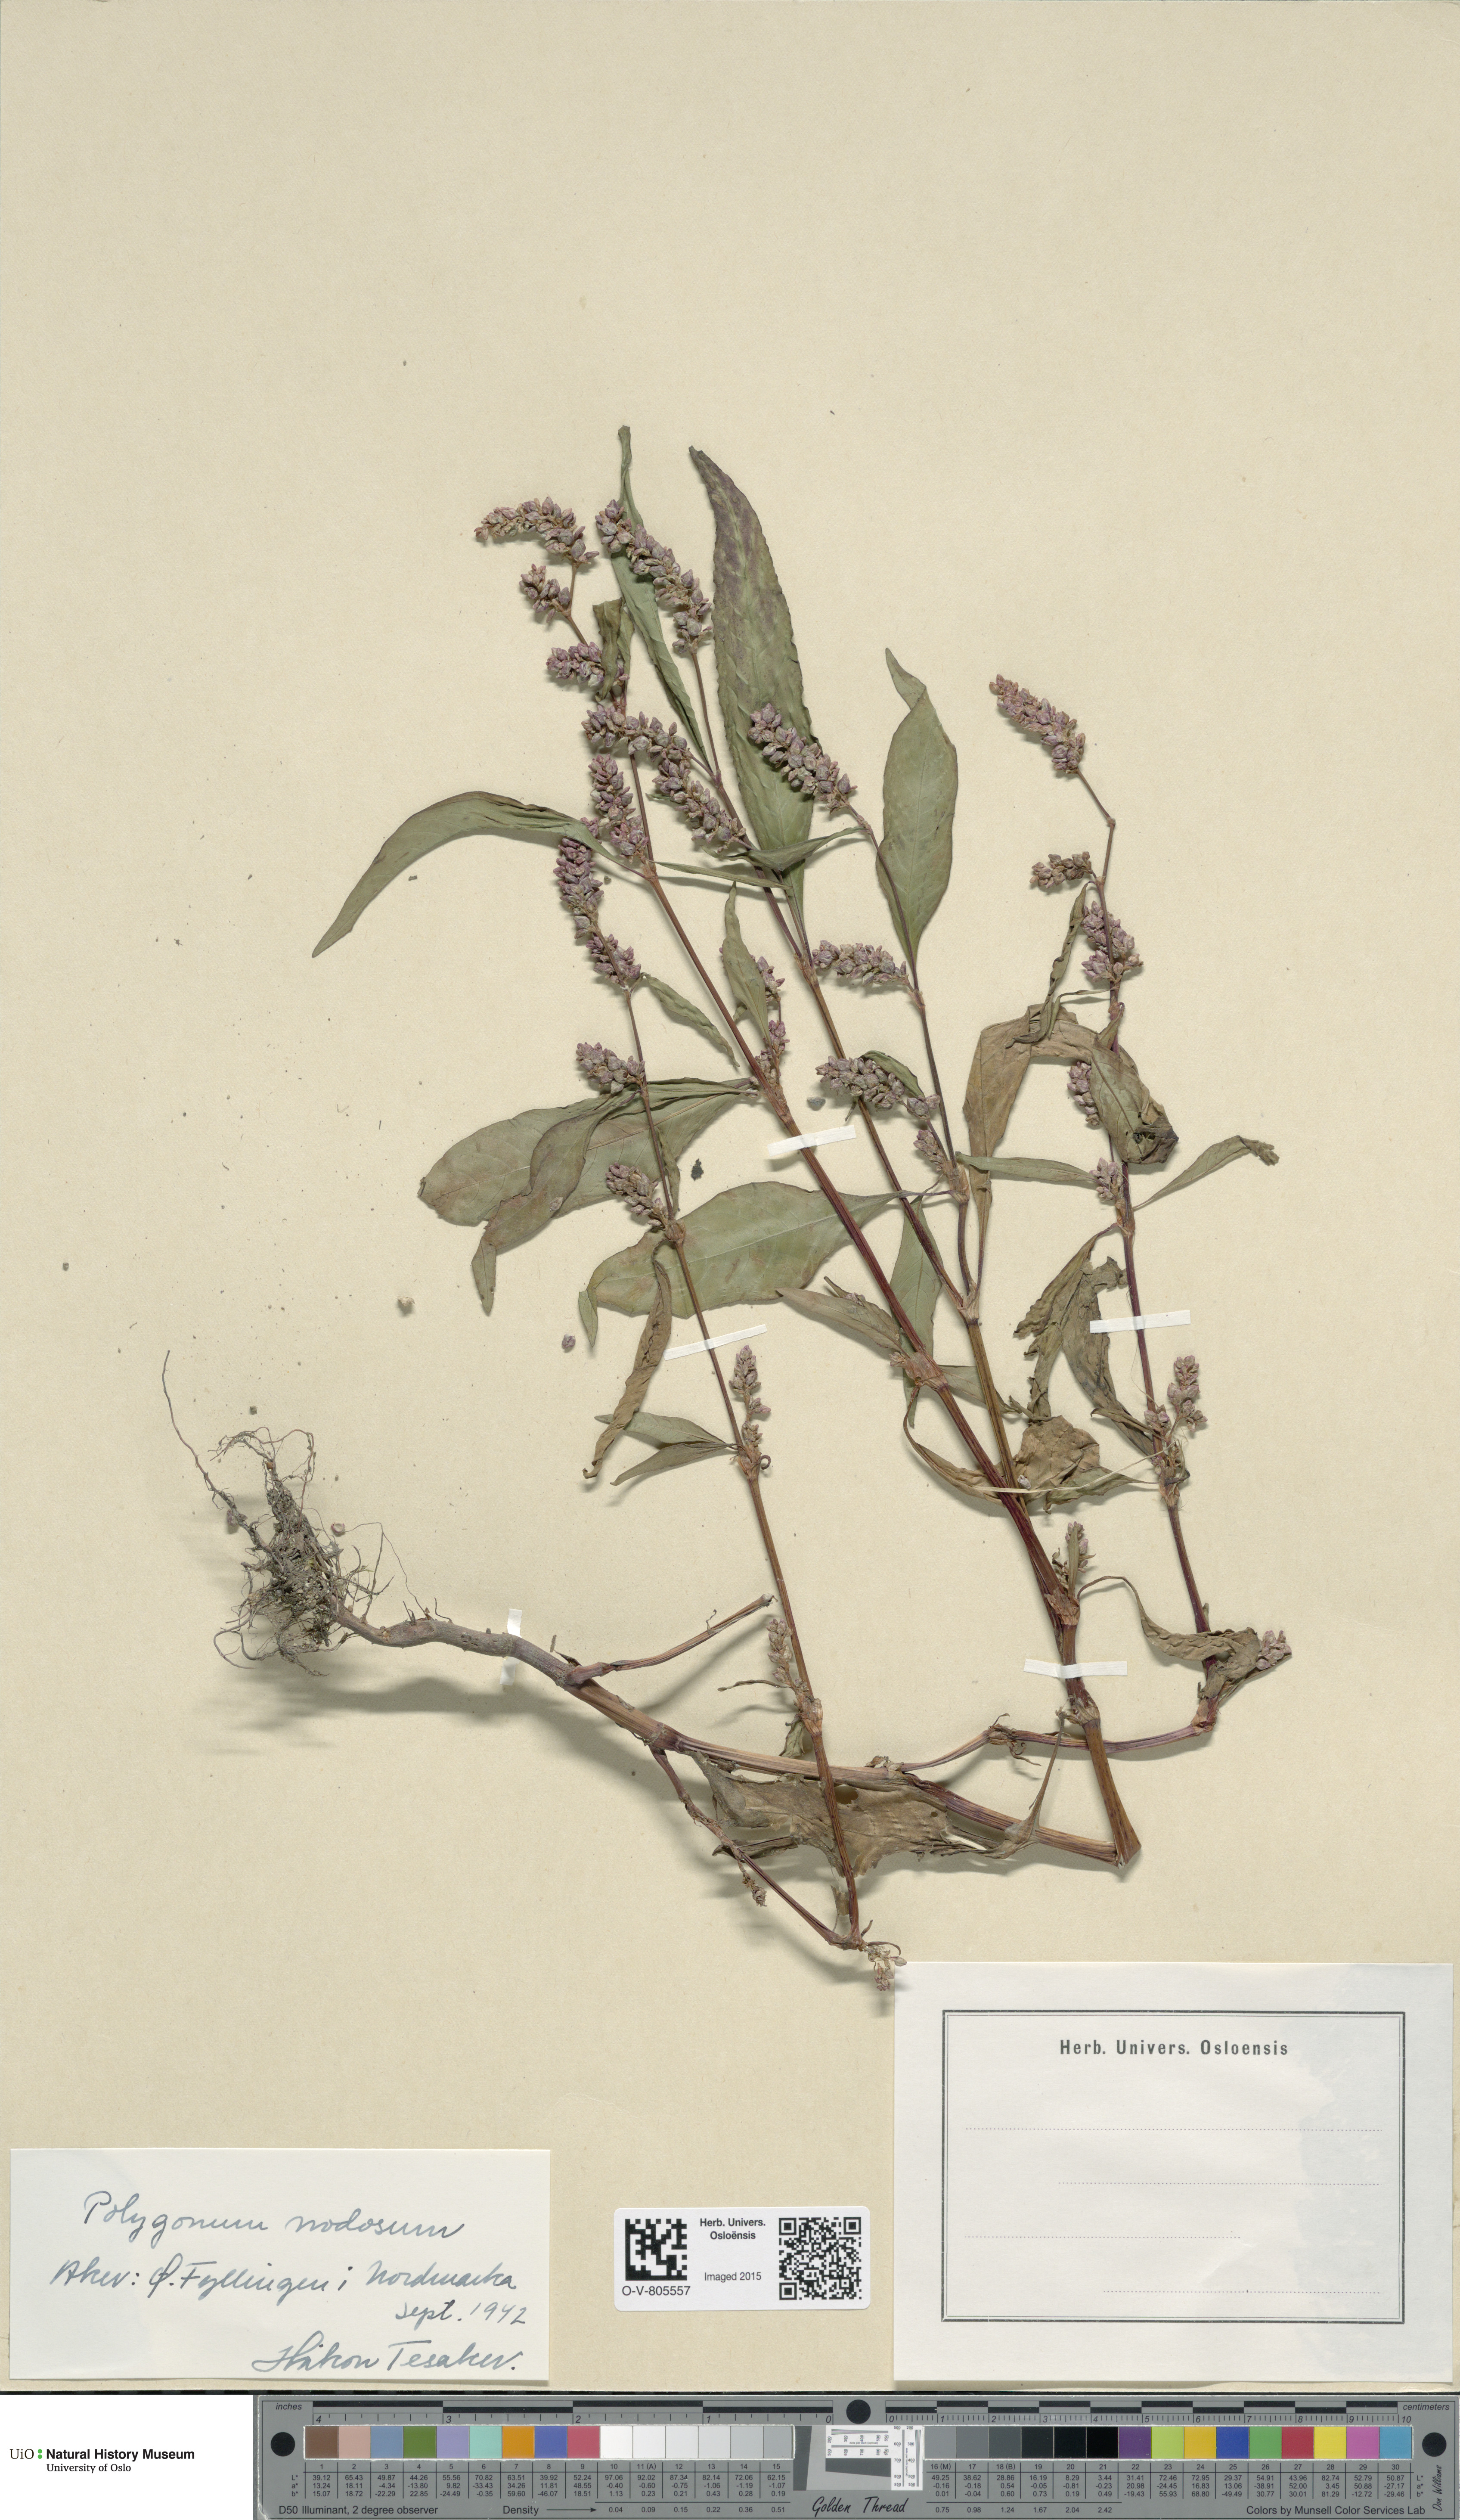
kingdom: Plantae
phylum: Tracheophyta
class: Magnoliopsida
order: Caryophyllales
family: Polygonaceae
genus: Persicaria
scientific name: Persicaria lapathifolia
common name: Curlytop knotweed
